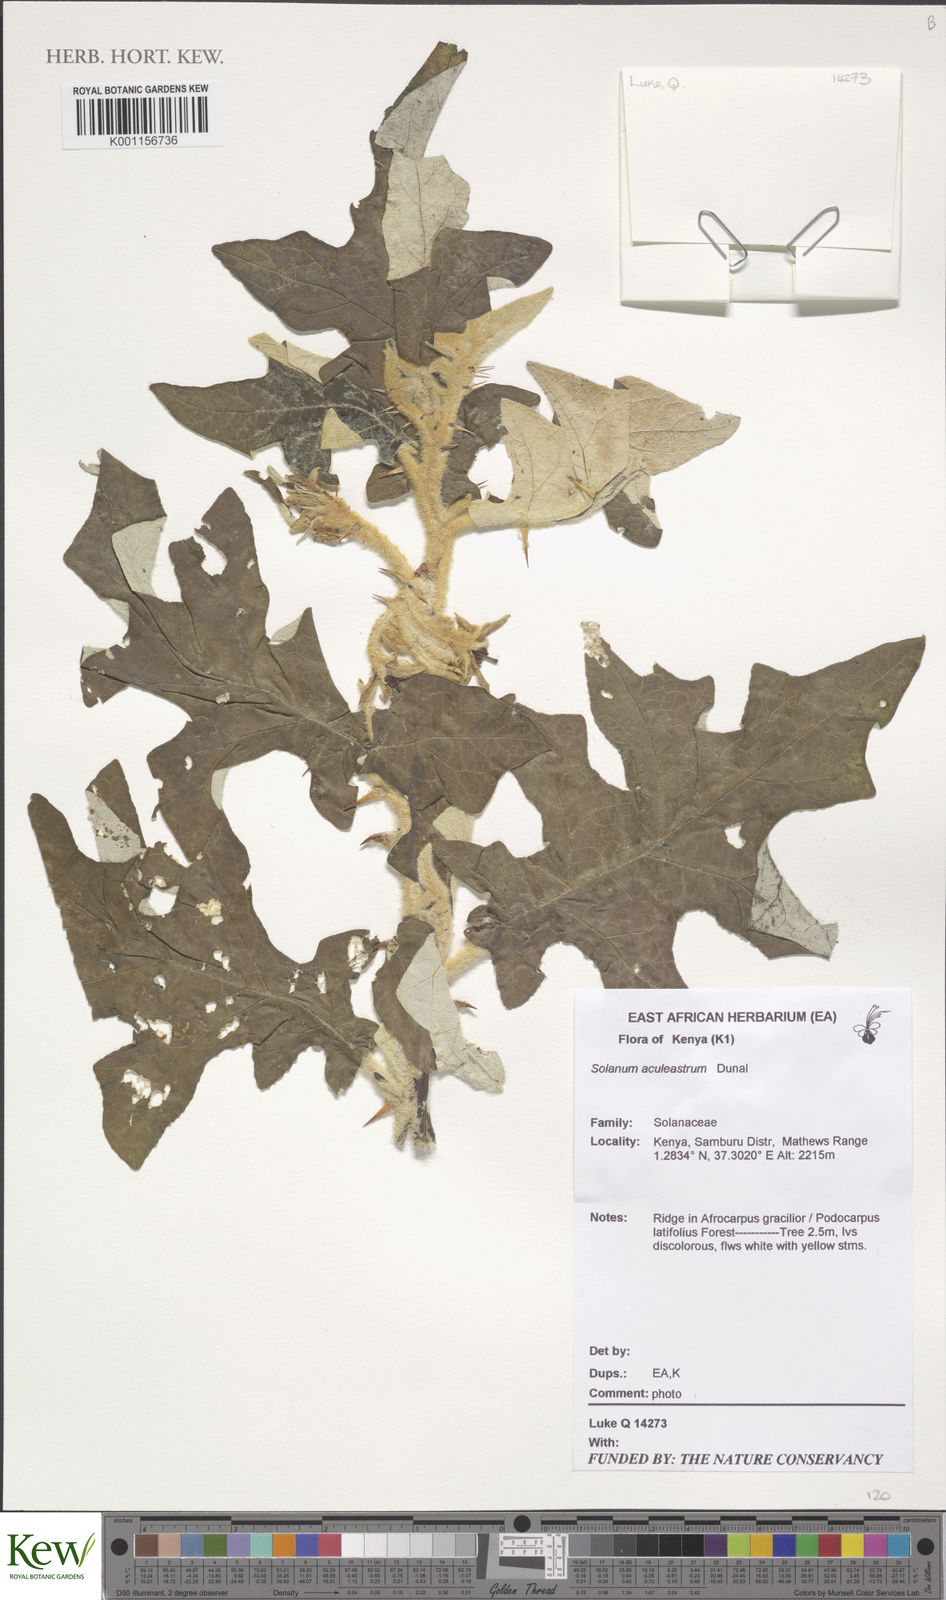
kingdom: Plantae
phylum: Tracheophyta
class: Magnoliopsida
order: Solanales
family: Solanaceae
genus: Solanum
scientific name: Solanum aculeastrum
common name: Goat bitter-apple
